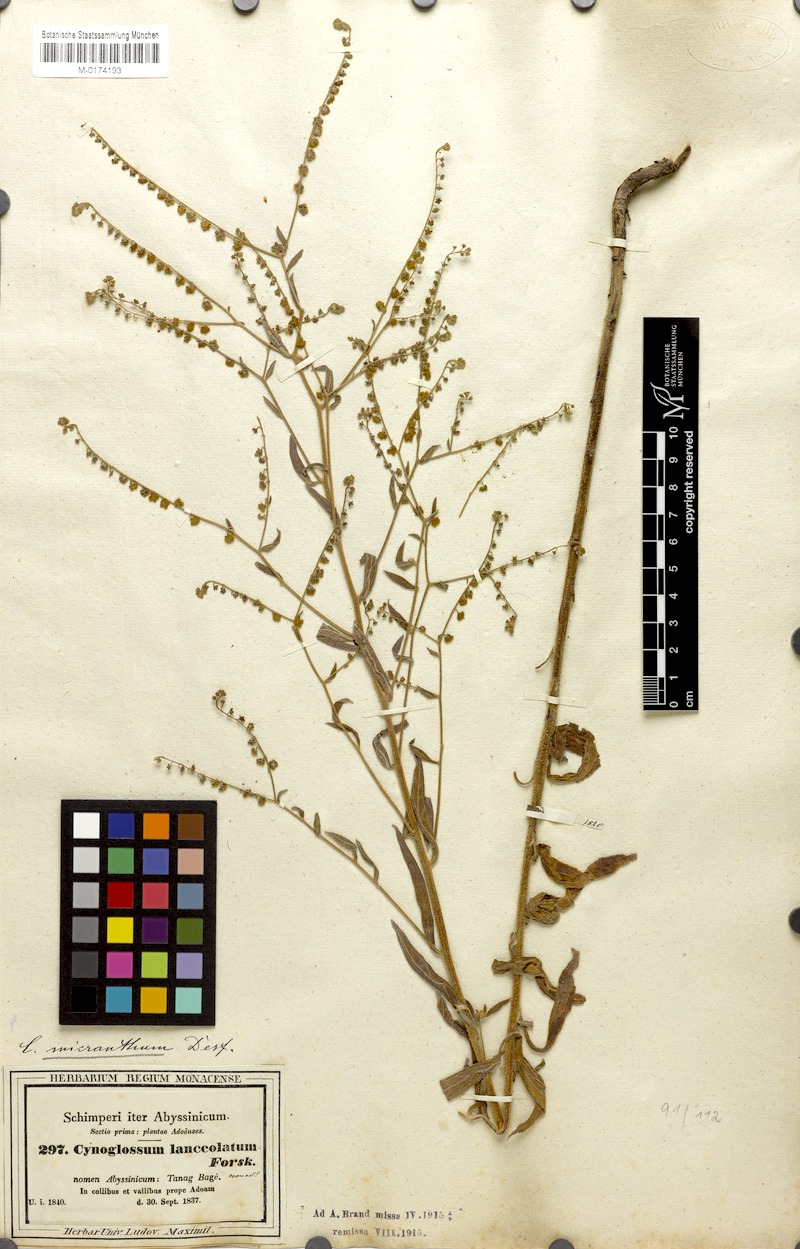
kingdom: Plantae
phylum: Tracheophyta
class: Magnoliopsida
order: Boraginales
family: Boraginaceae
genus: Paracynoglossum
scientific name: Paracynoglossum lanceolatum
